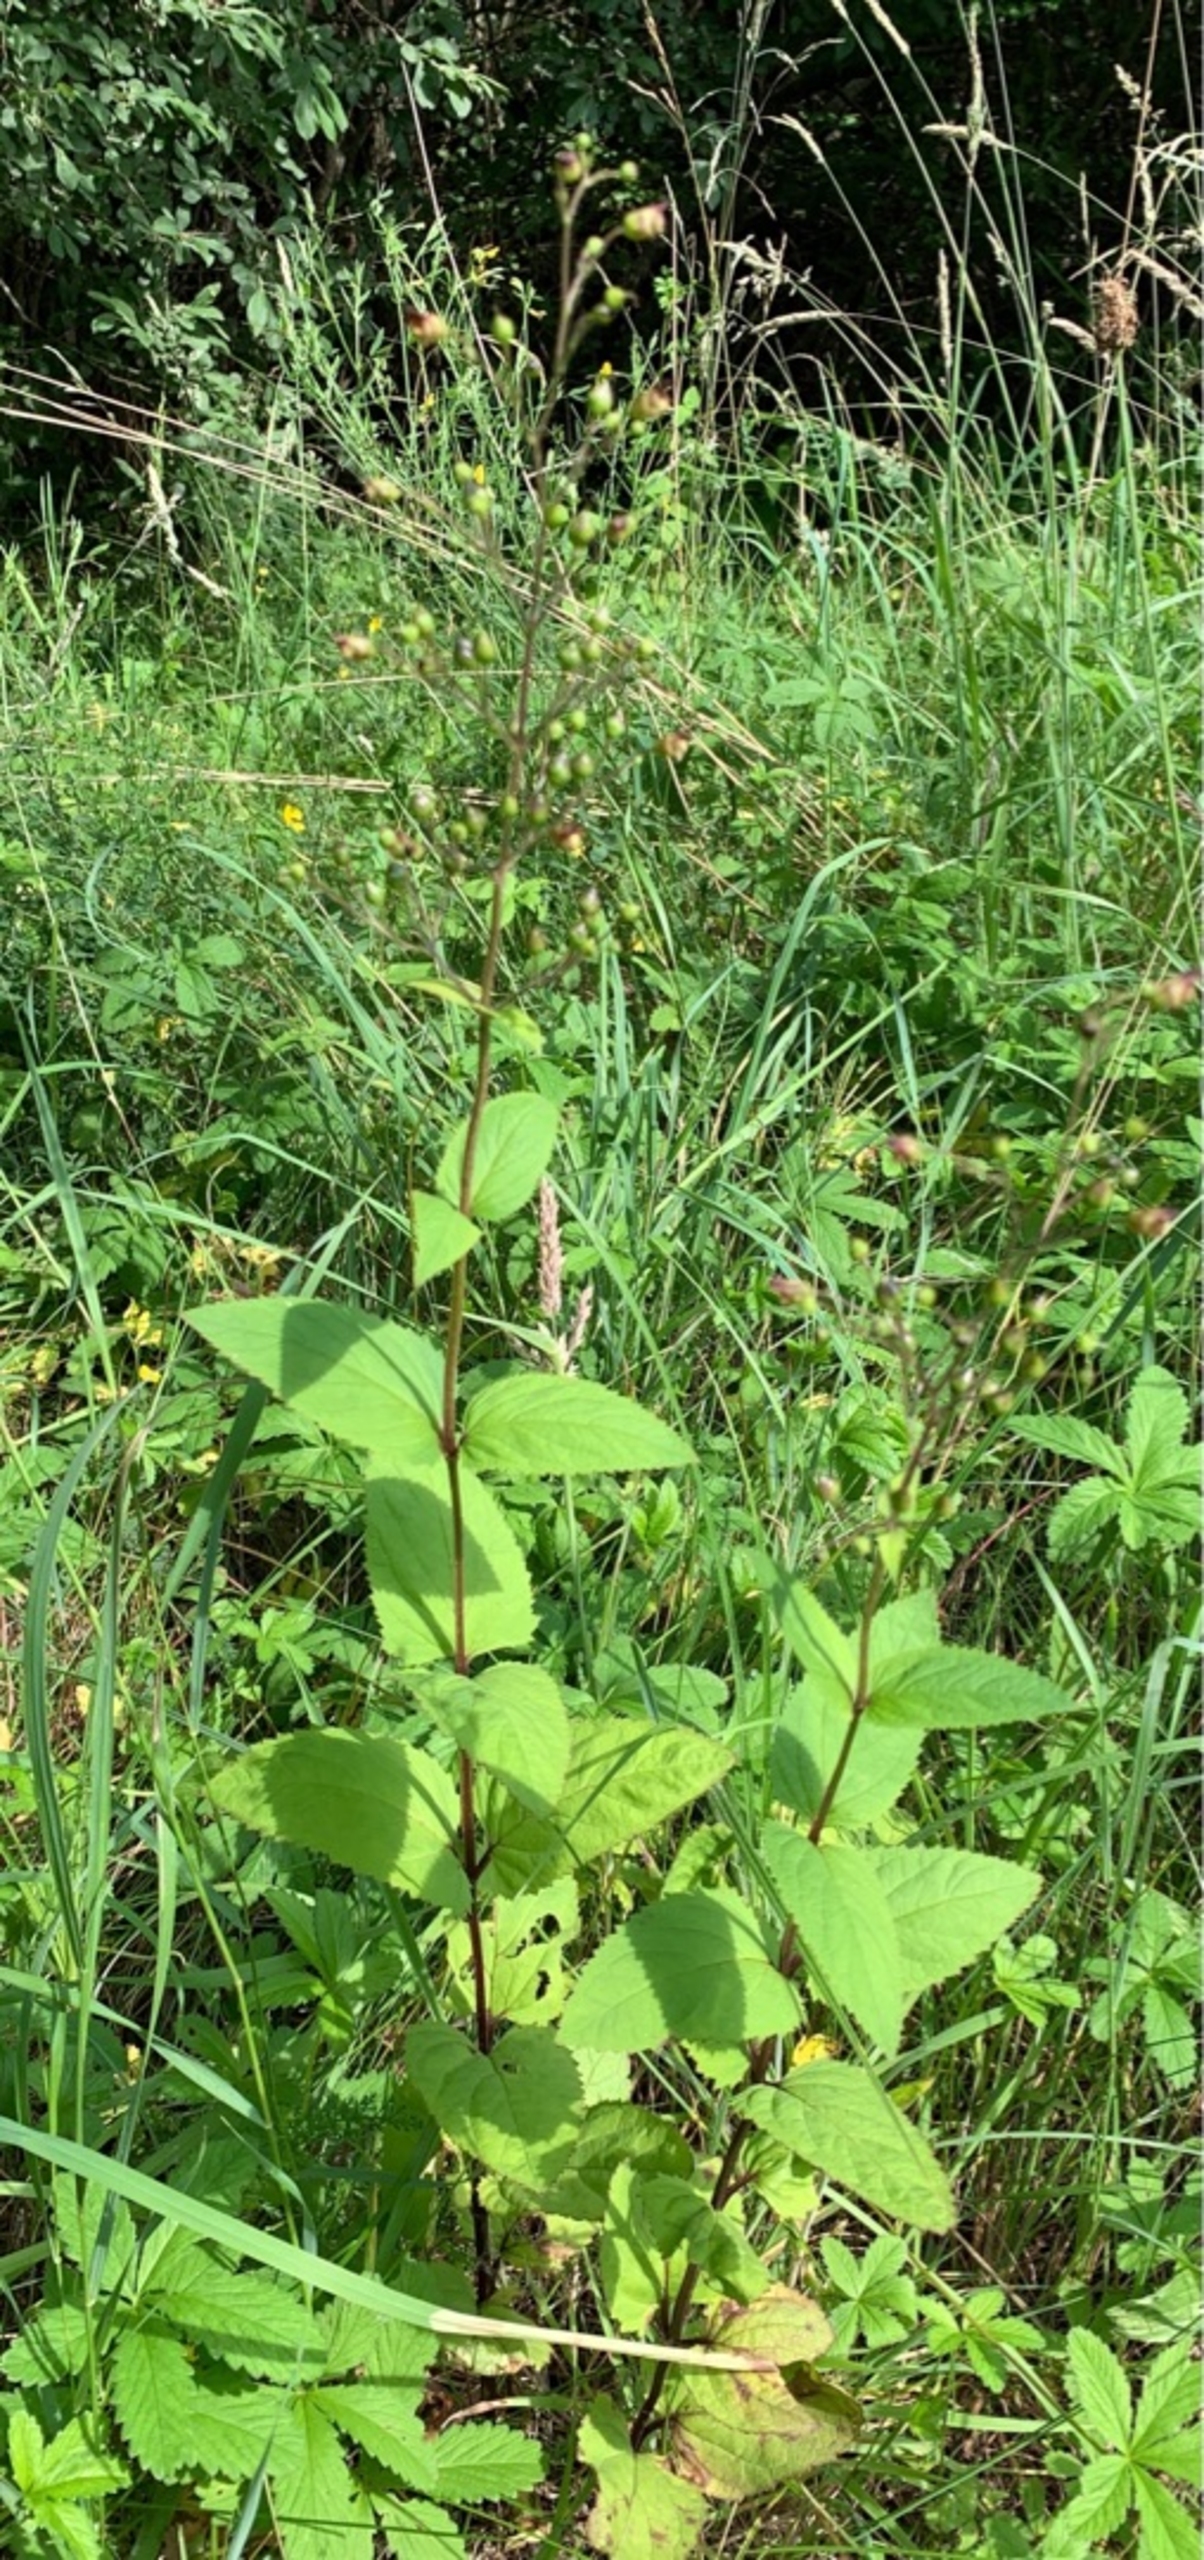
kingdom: Plantae
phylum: Tracheophyta
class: Magnoliopsida
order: Lamiales
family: Scrophulariaceae
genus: Scrophularia
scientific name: Scrophularia nodosa
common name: Knoldet brunrod
